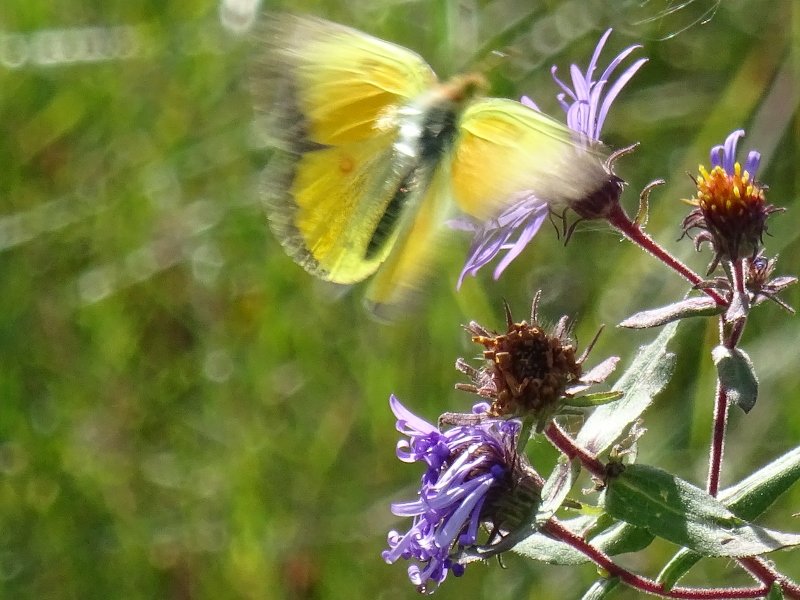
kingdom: Animalia
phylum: Arthropoda
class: Insecta
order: Lepidoptera
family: Pieridae
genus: Colias
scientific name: Colias eurytheme
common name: Orange Sulphur
